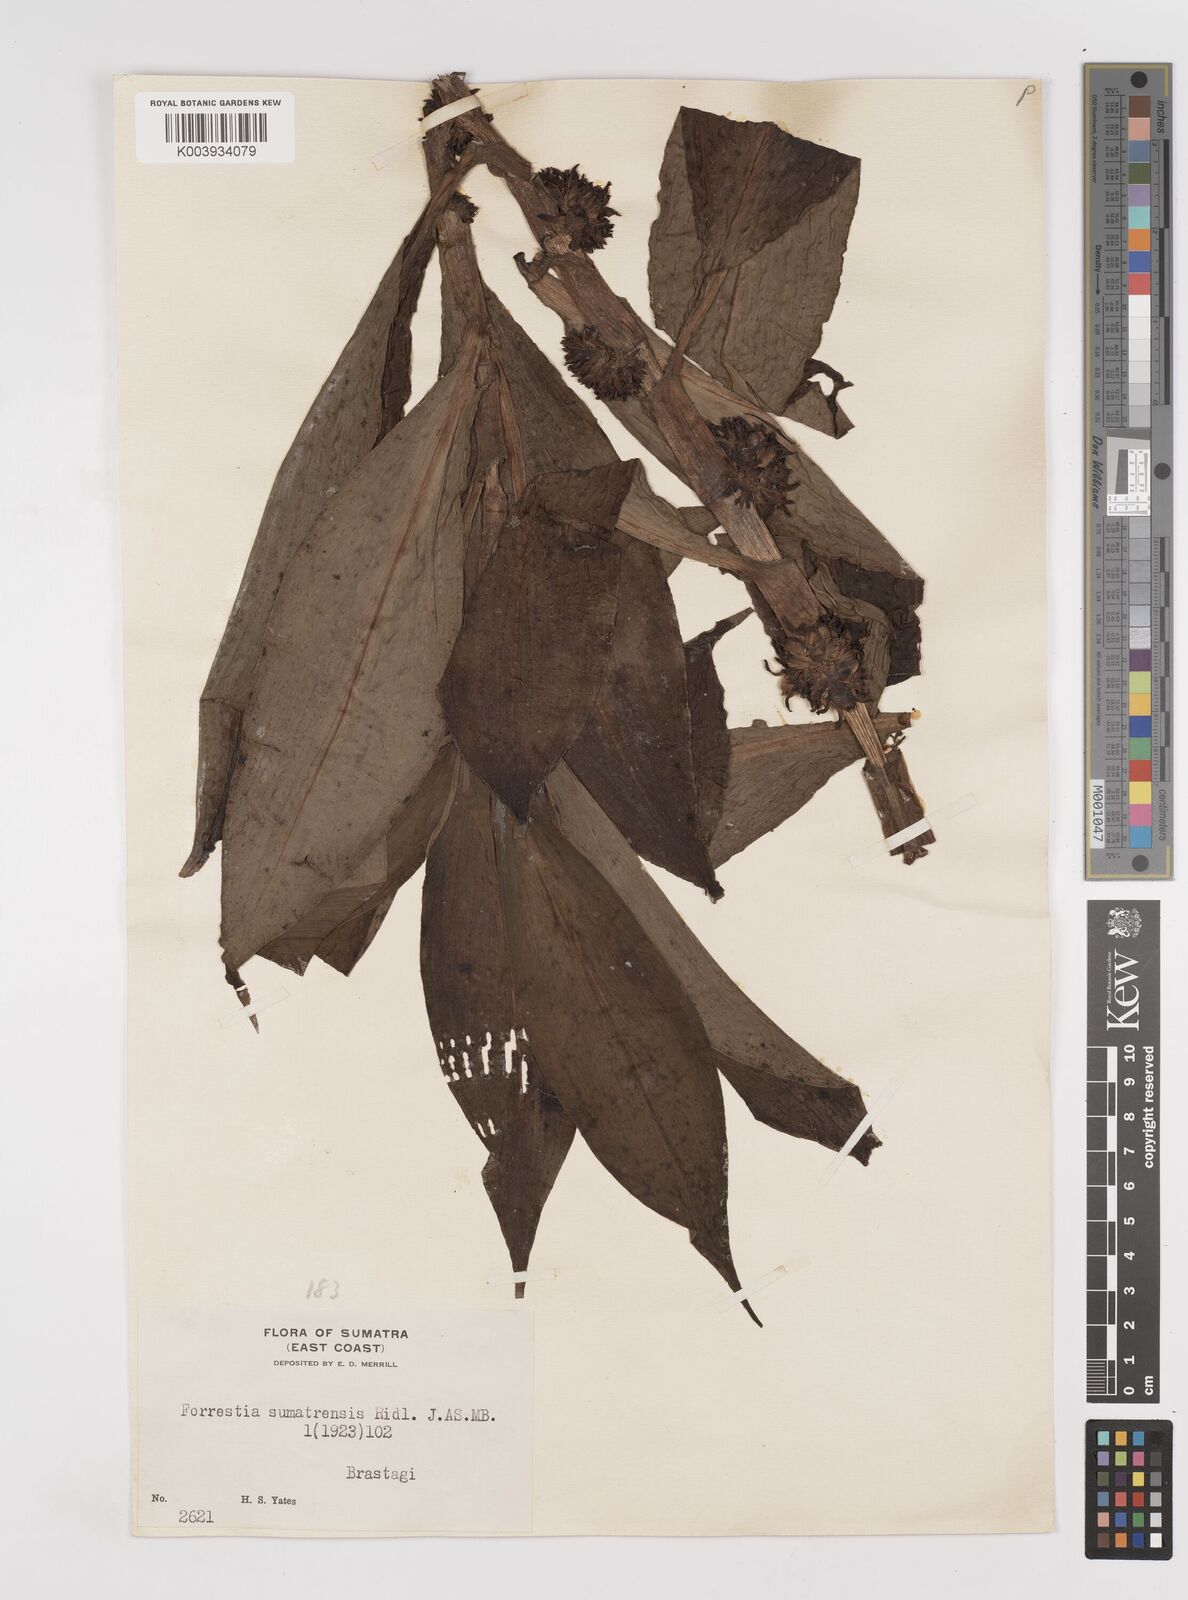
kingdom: Plantae
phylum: Tracheophyta
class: Liliopsida
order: Commelinales
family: Commelinaceae
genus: Amischotolype
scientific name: Amischotolype
